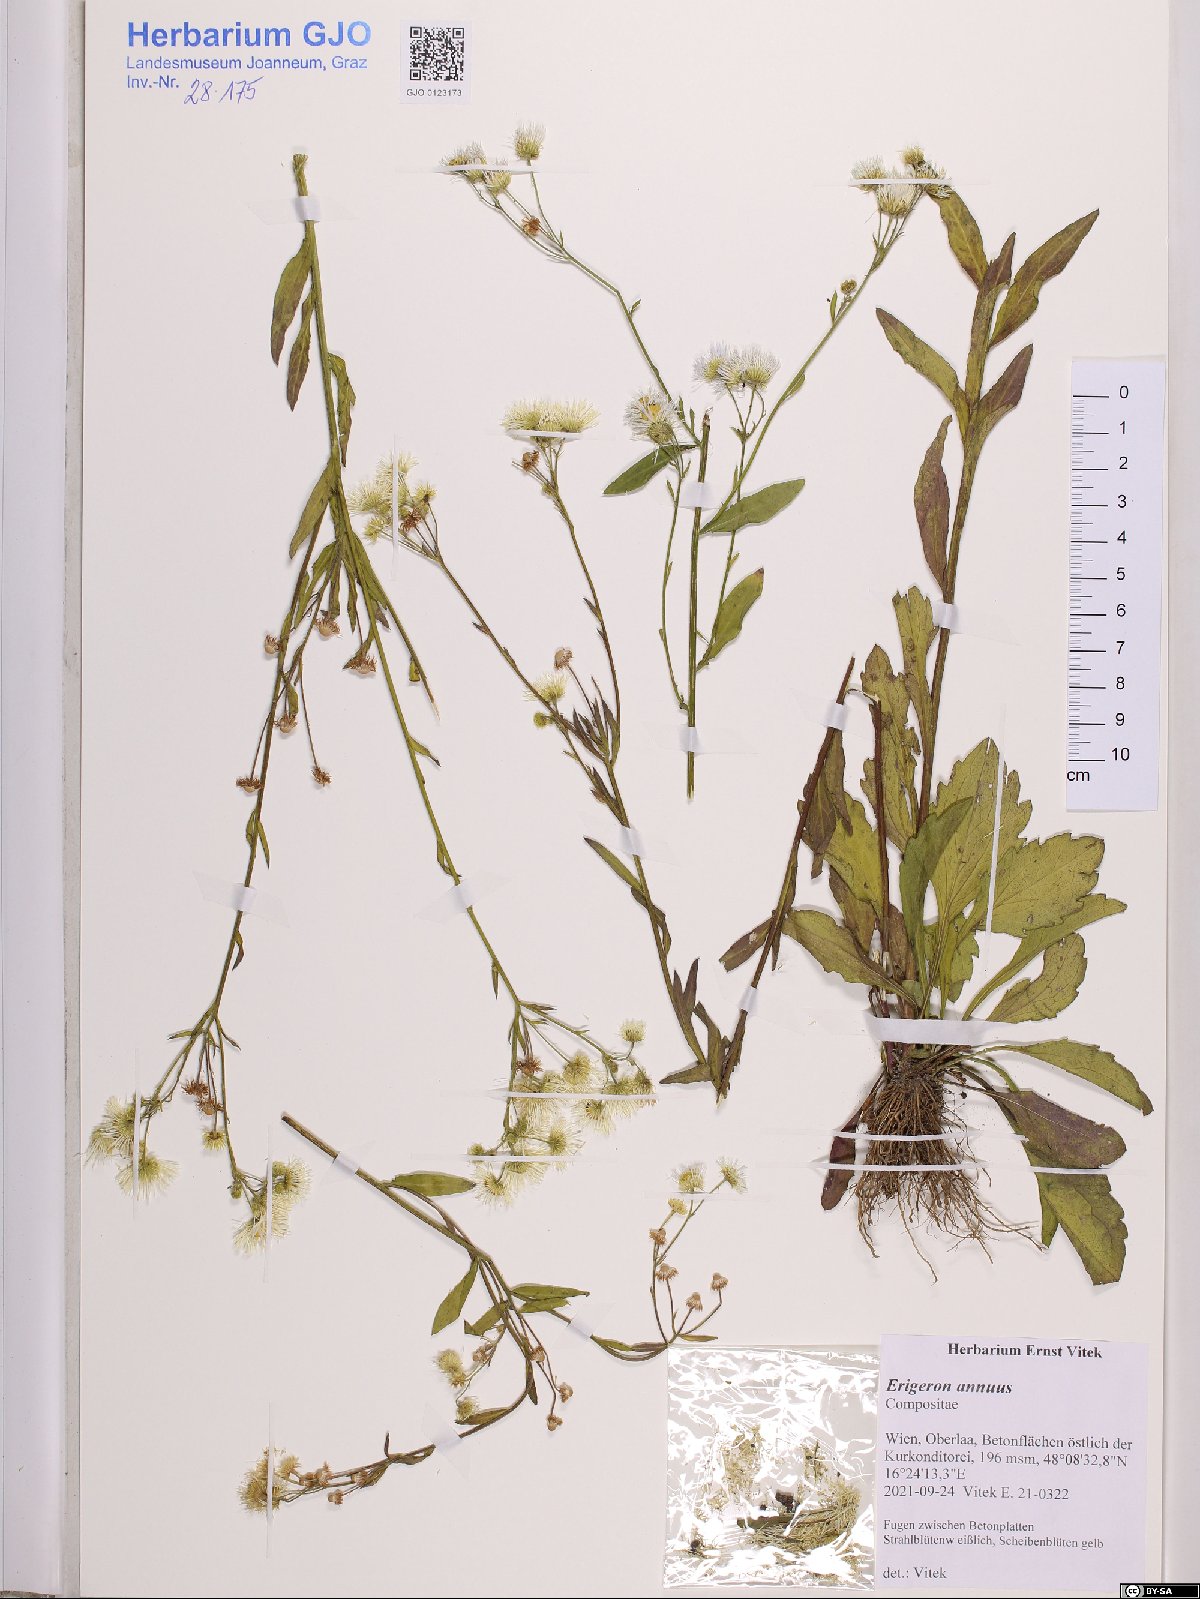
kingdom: Plantae
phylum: Tracheophyta
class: Magnoliopsida
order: Asterales
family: Asteraceae
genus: Erigeron
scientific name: Erigeron annuus
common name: Tall fleabane
